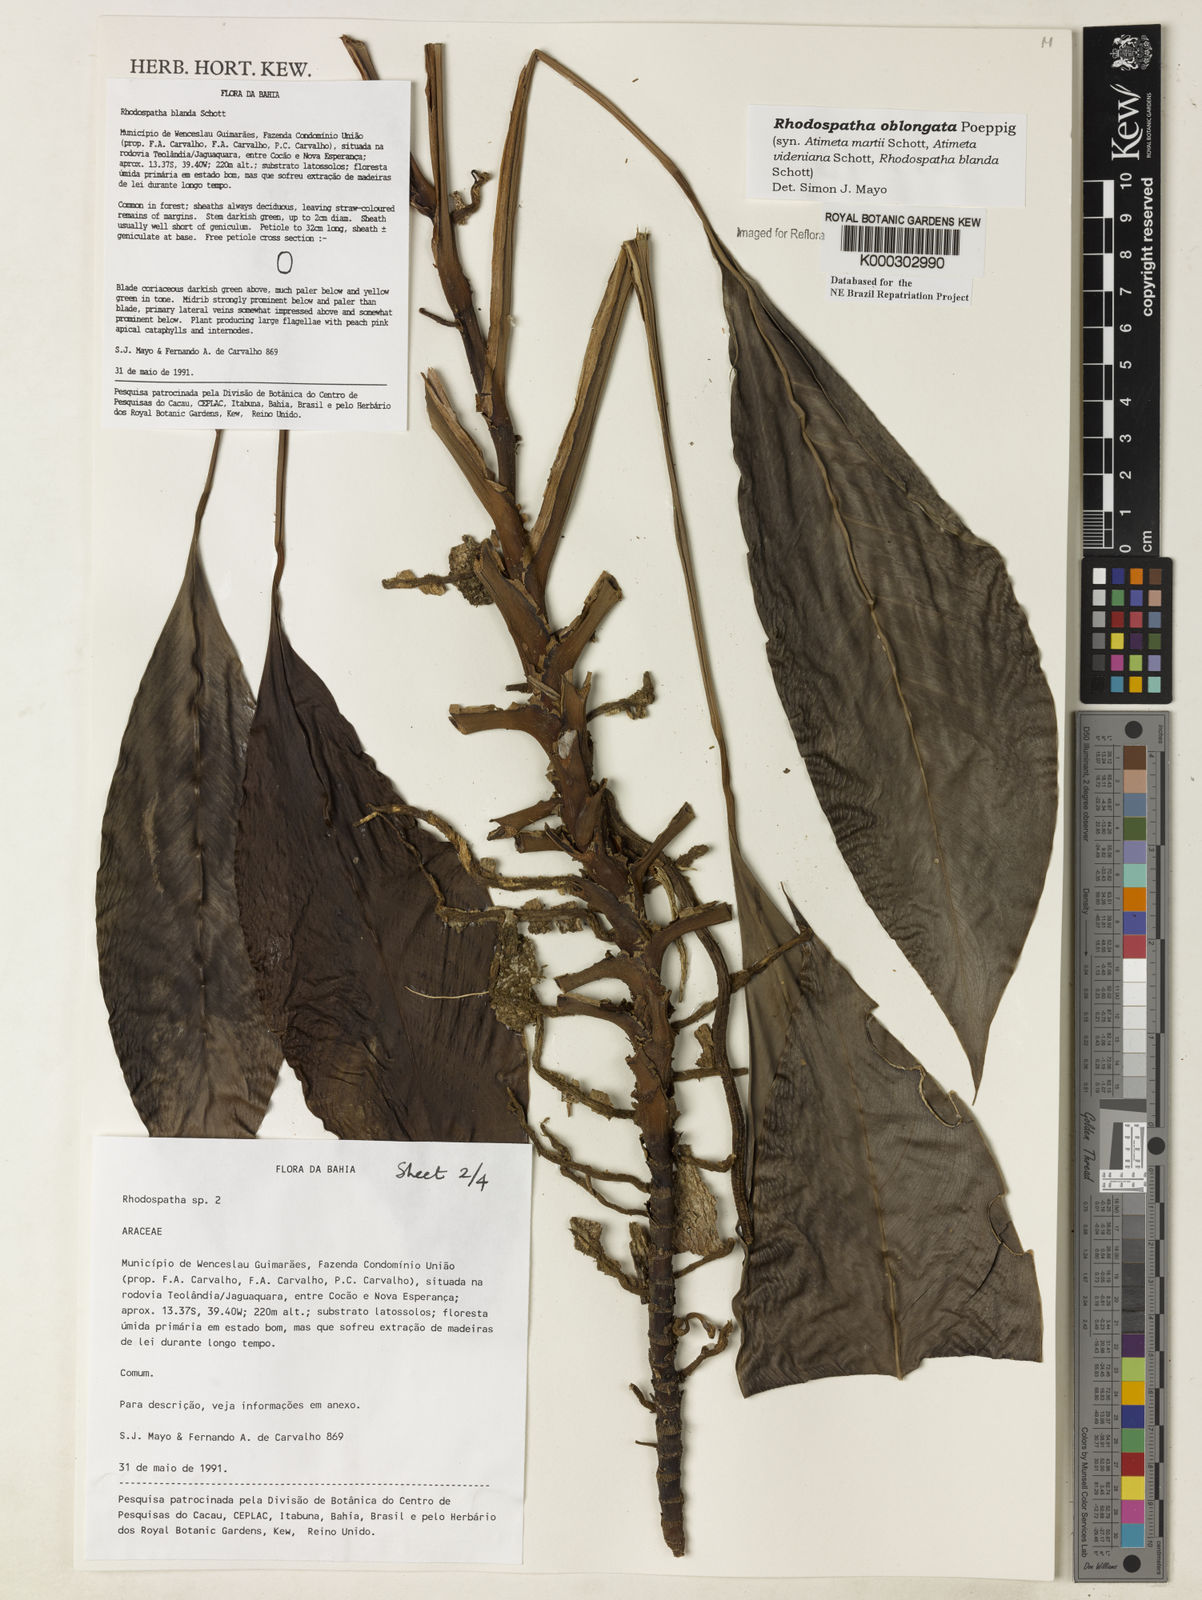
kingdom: Plantae
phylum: Tracheophyta
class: Liliopsida
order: Alismatales
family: Araceae
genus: Rhodospatha
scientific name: Rhodospatha oblongata
